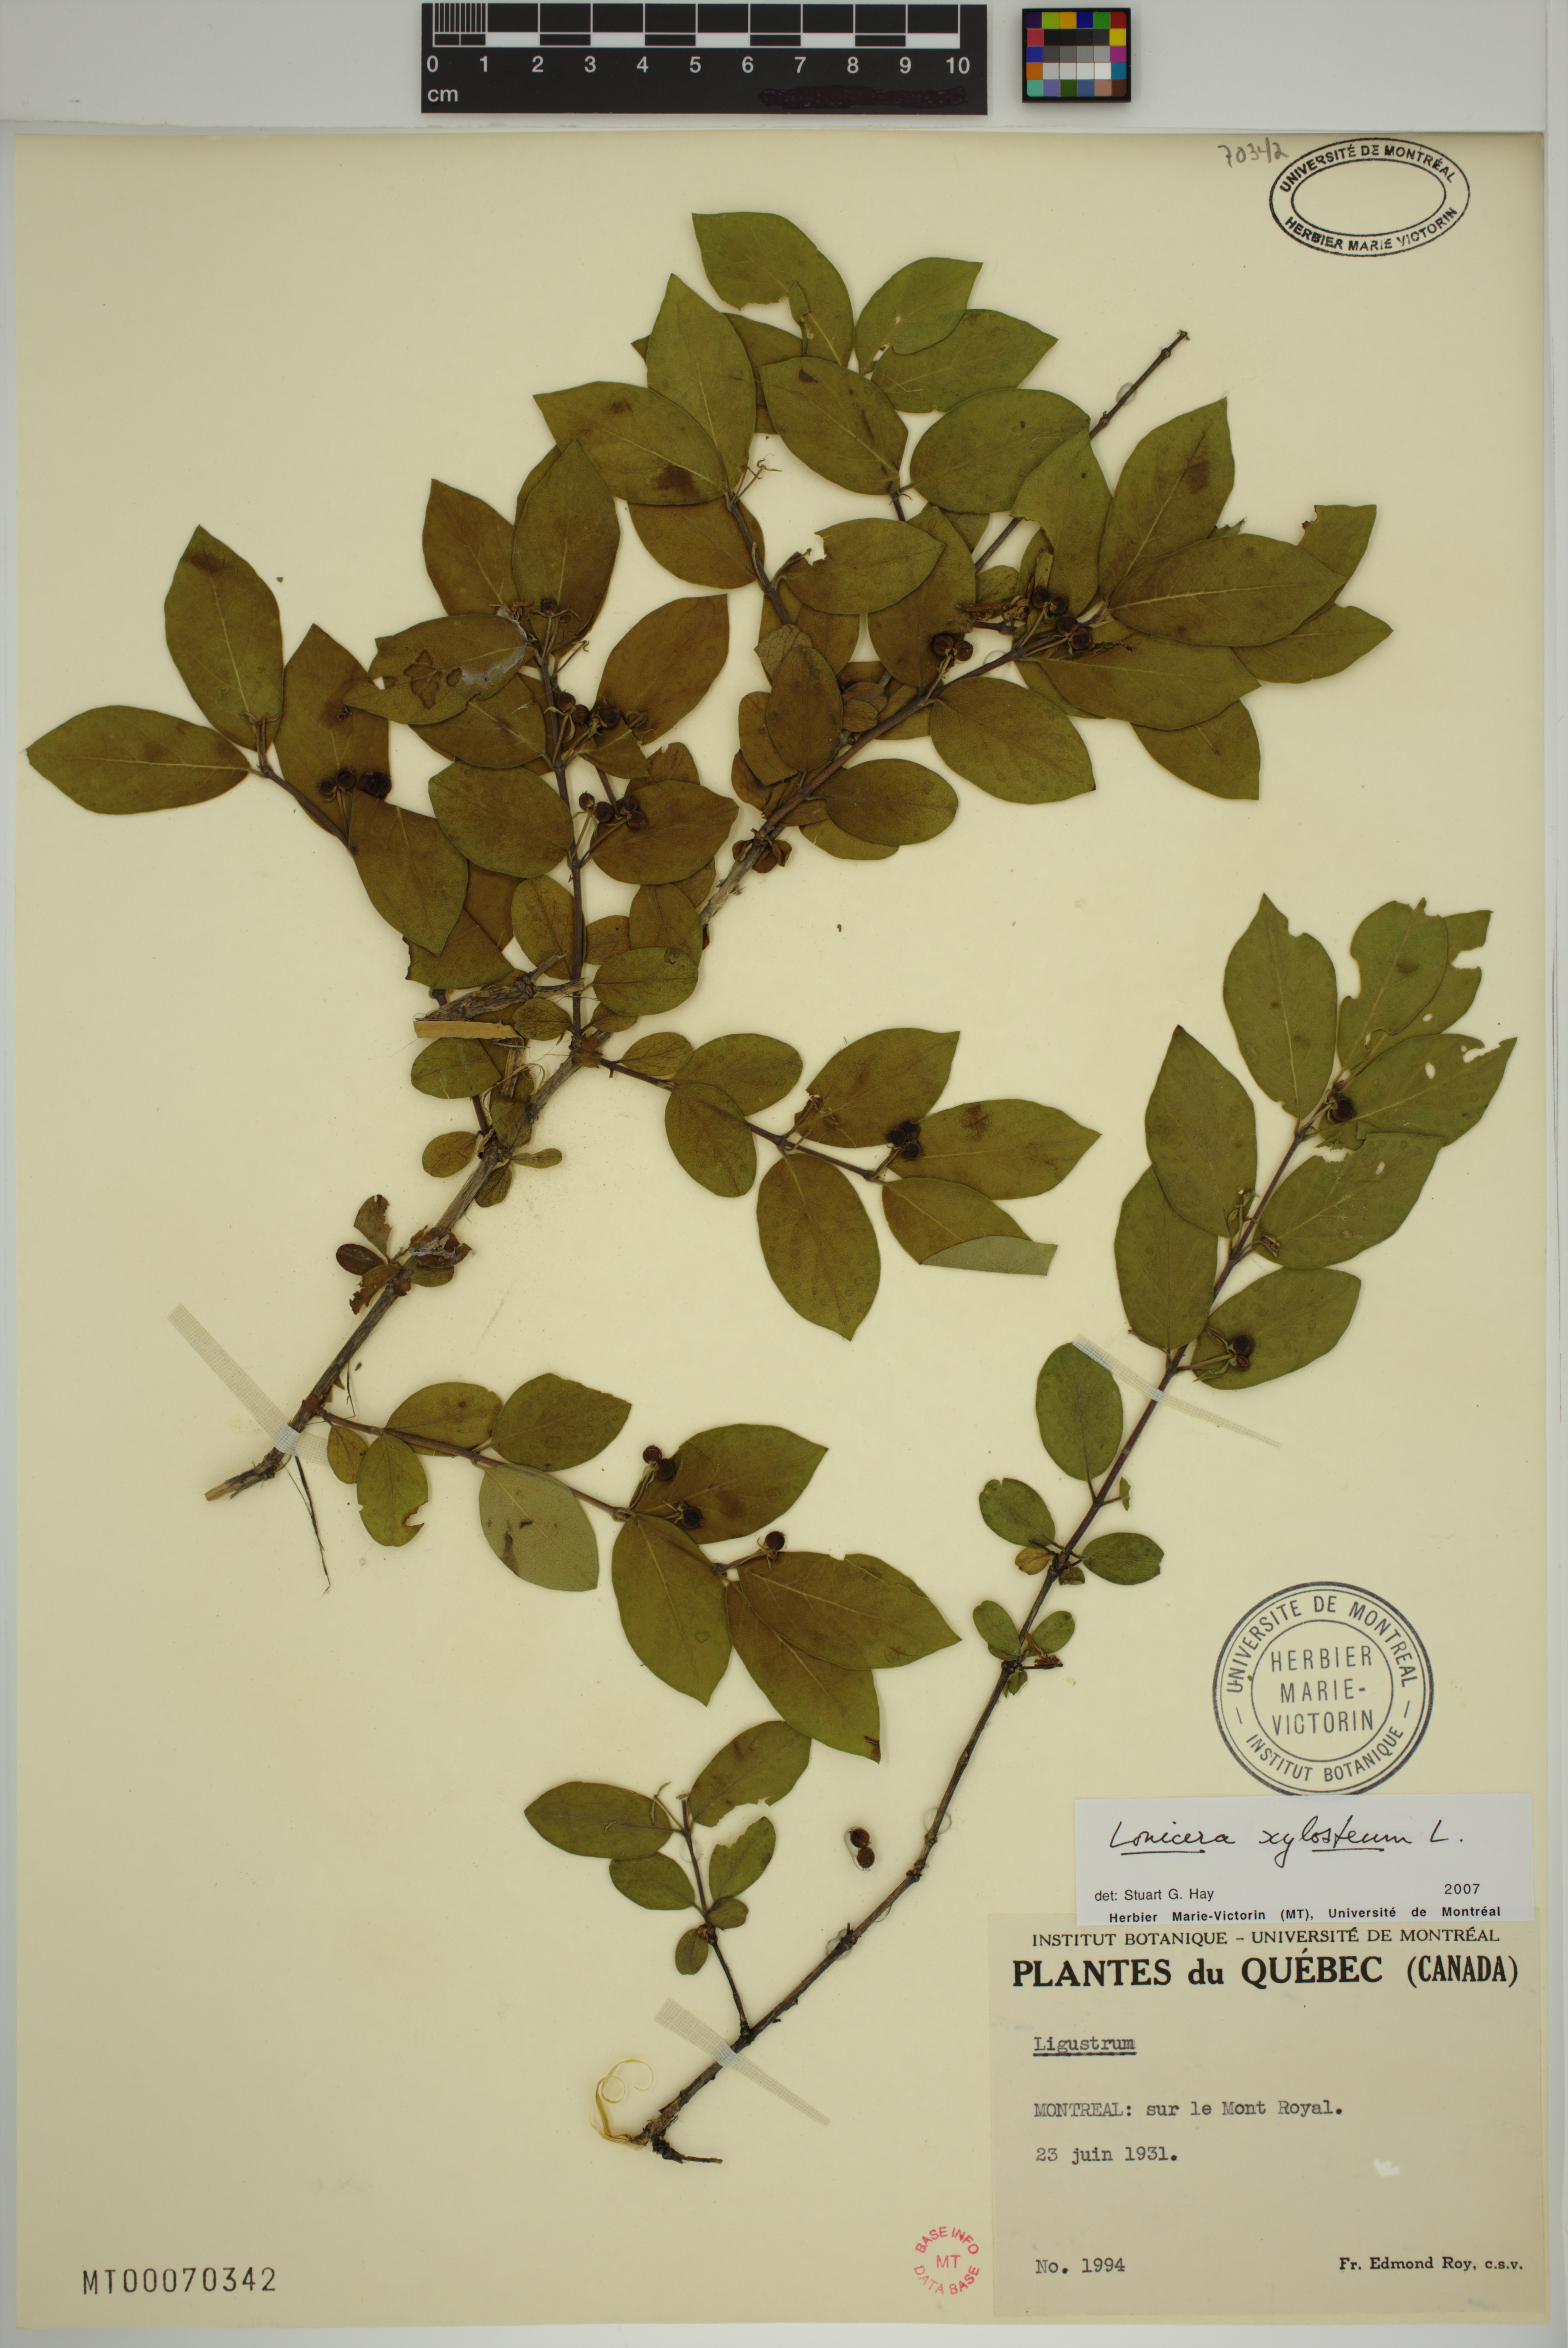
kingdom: Plantae
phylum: Tracheophyta
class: Magnoliopsida
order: Dipsacales
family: Caprifoliaceae
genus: Lonicera
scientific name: Lonicera tatarica
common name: Tatarian honeysuckle
